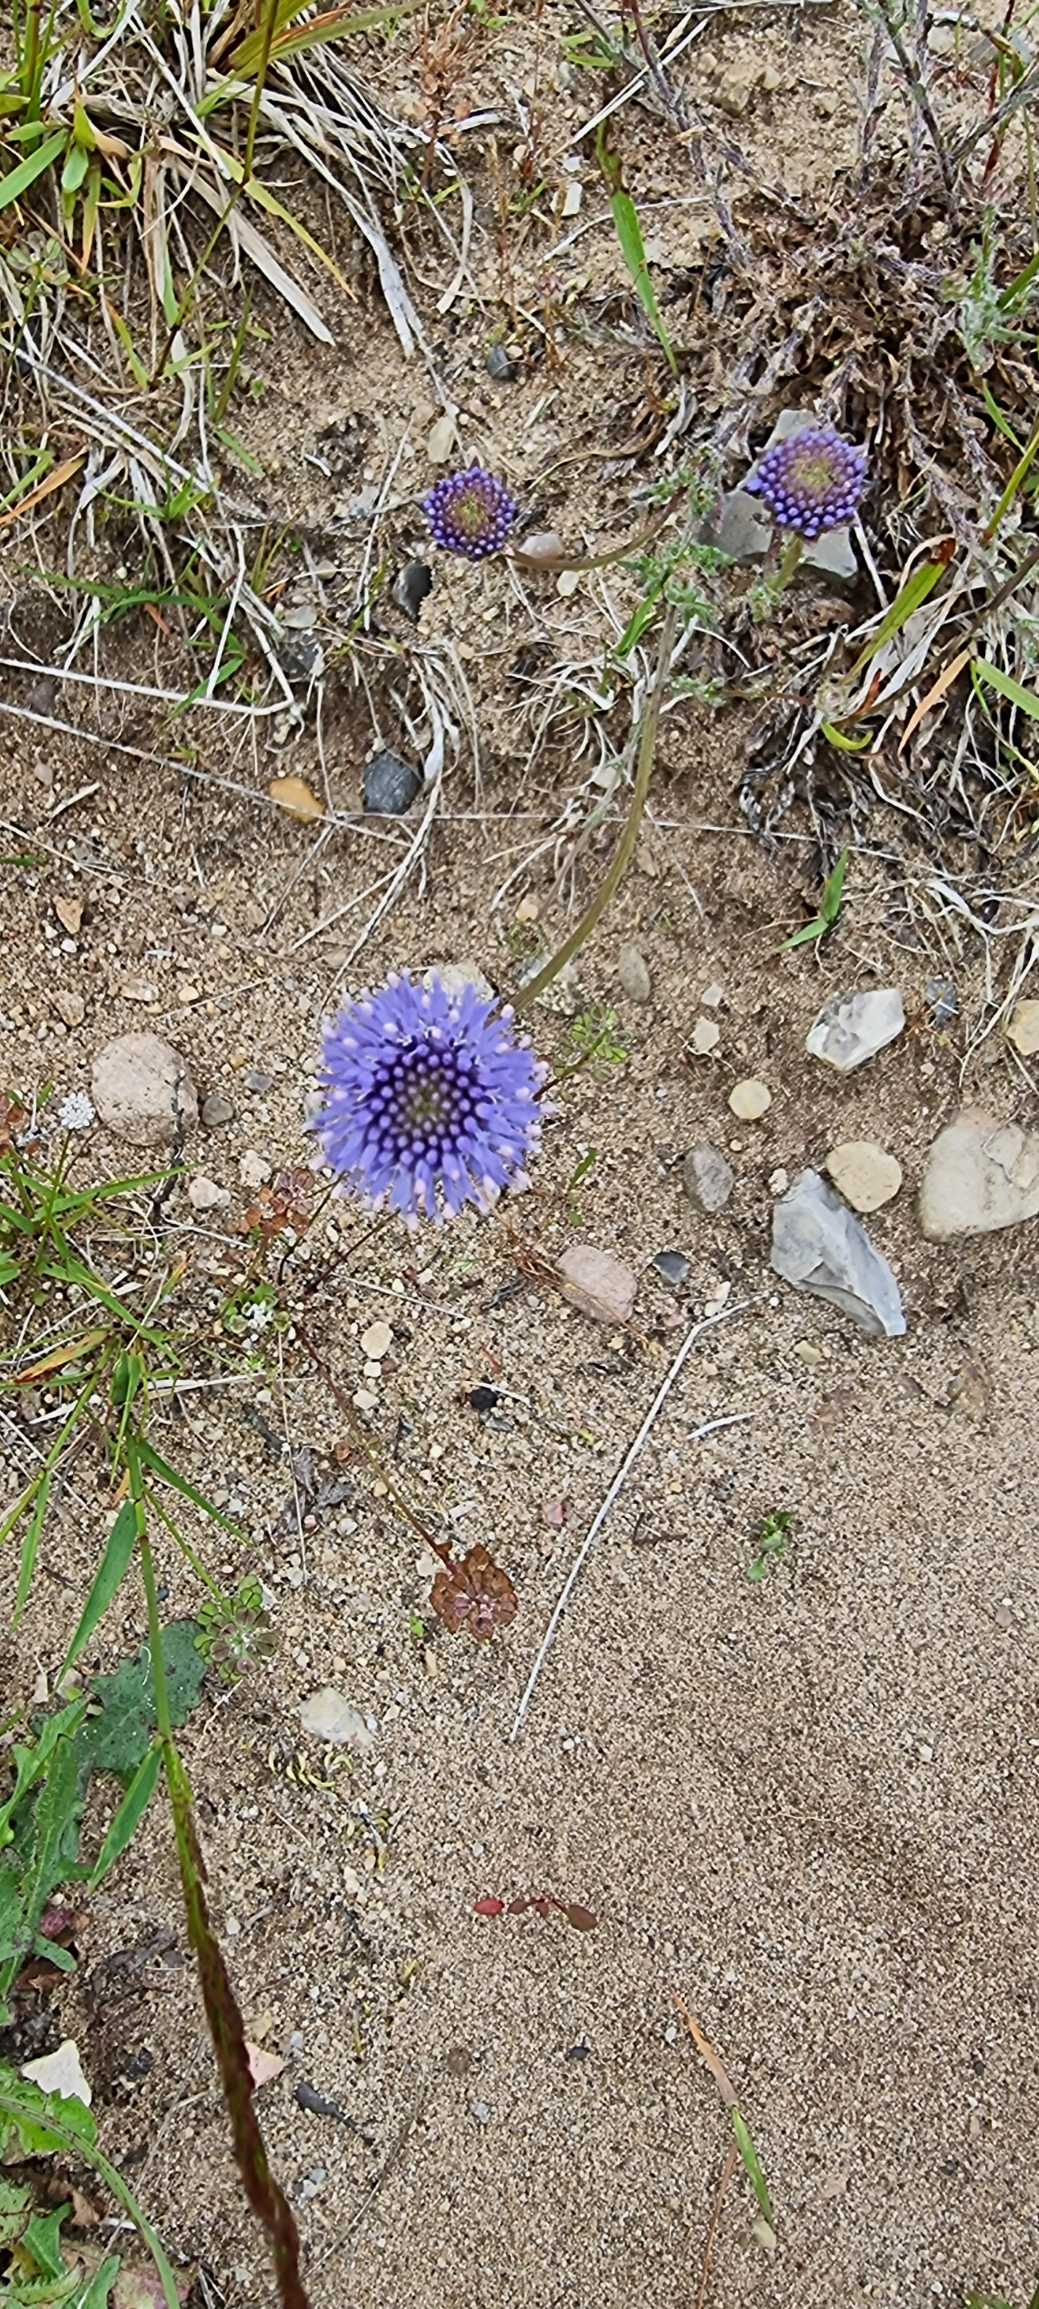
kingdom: Plantae
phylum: Tracheophyta
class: Magnoliopsida
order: Asterales
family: Campanulaceae
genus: Jasione
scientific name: Jasione montana
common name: Blåmunke
